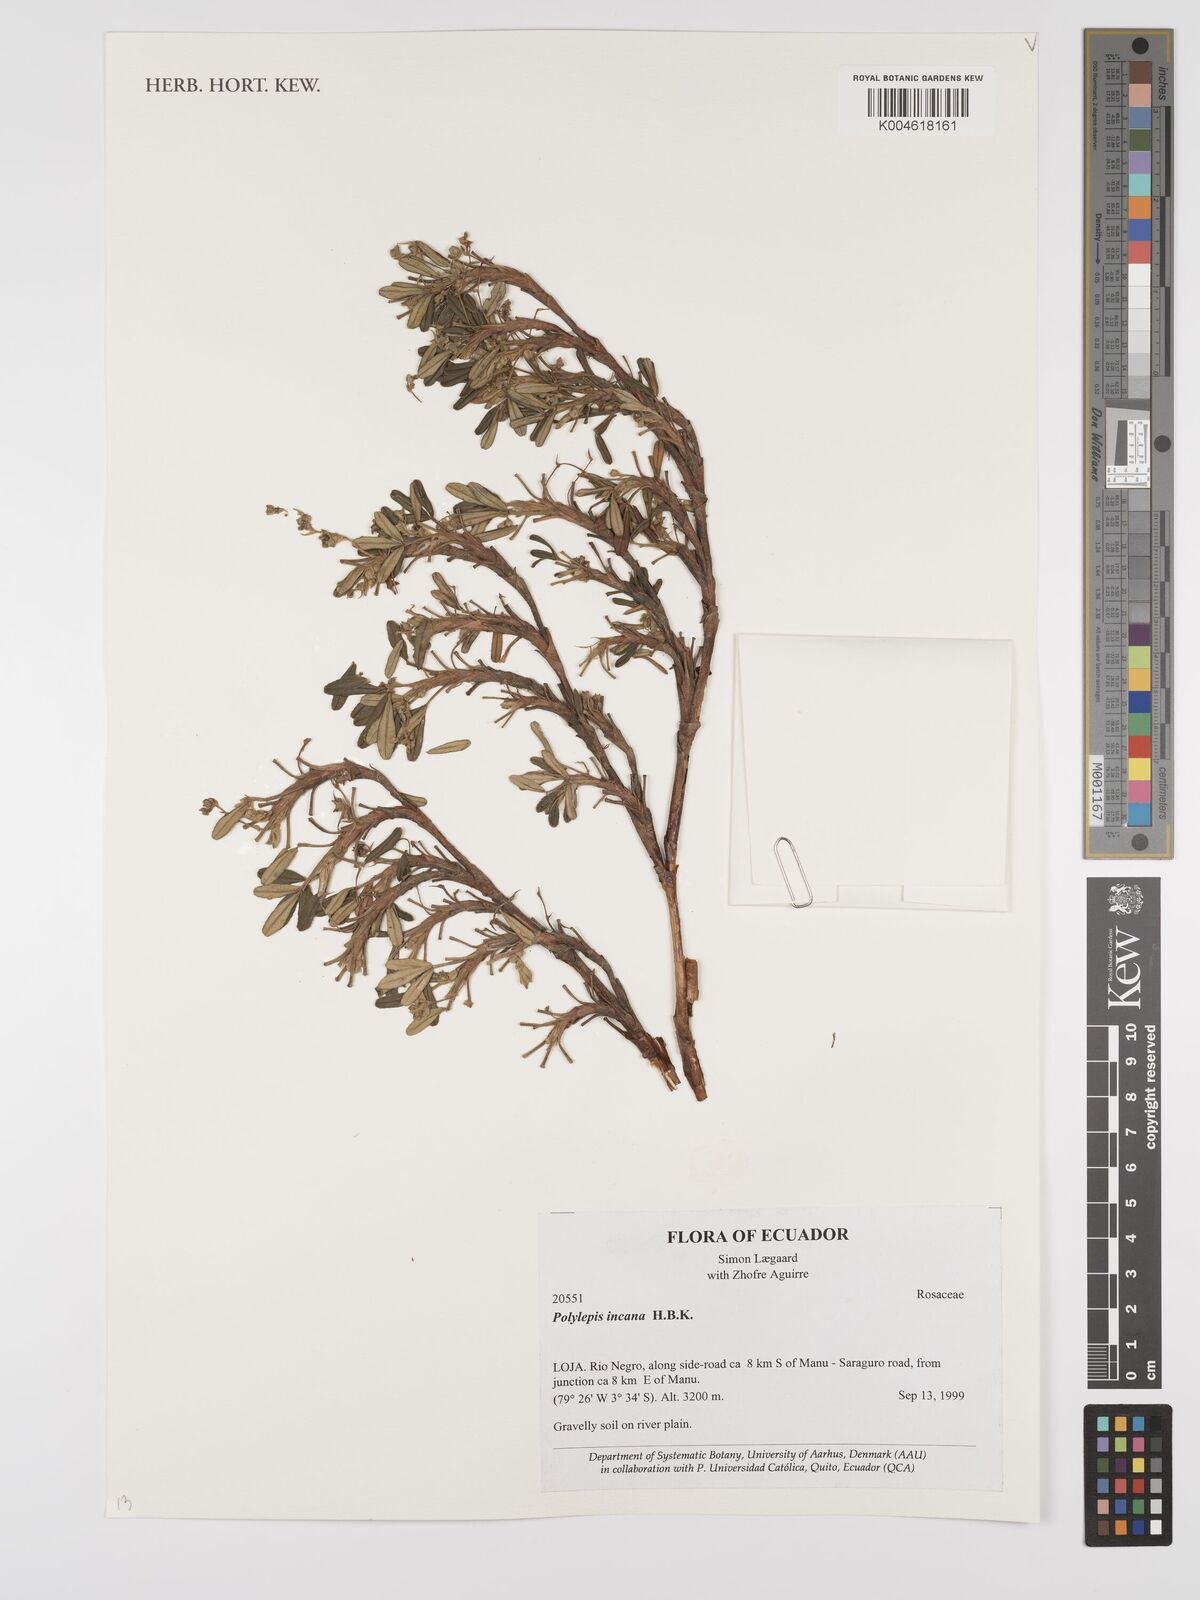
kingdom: Plantae
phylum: Tracheophyta
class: Magnoliopsida
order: Rosales
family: Rosaceae
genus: Polylepis
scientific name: Polylepis incana
